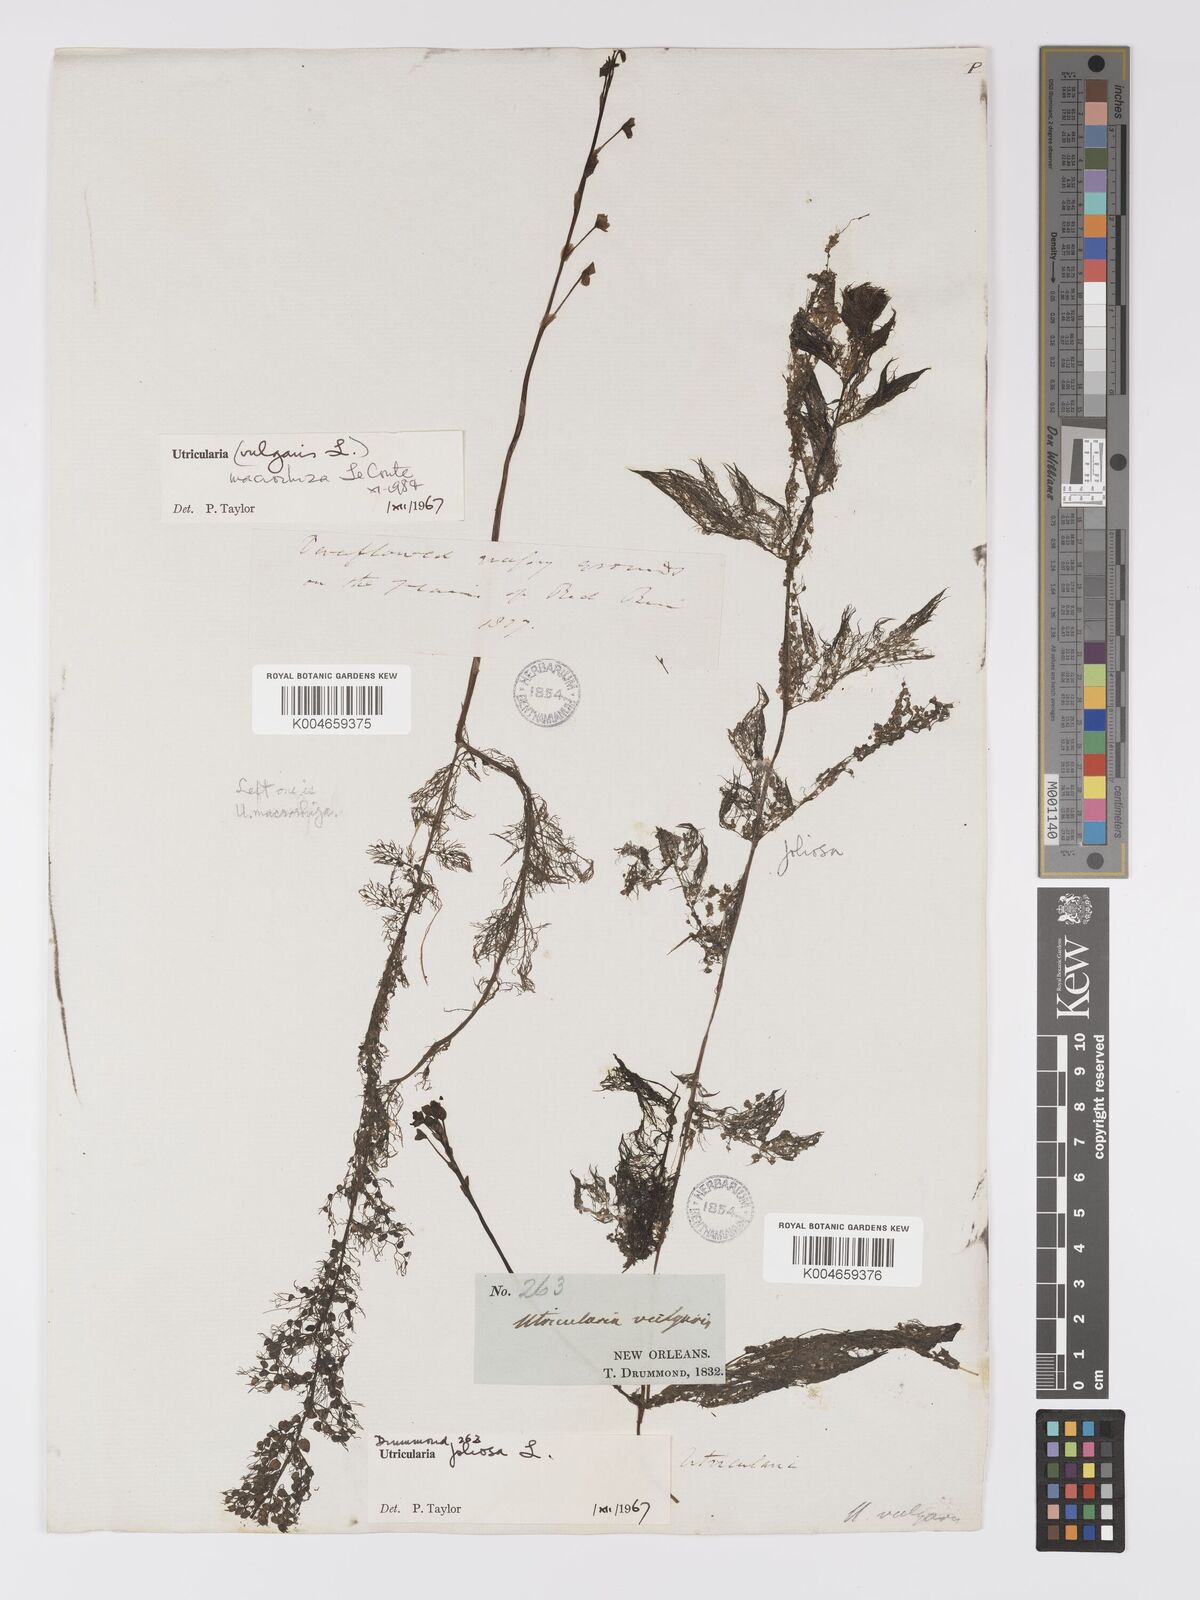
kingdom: Plantae
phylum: Tracheophyta
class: Magnoliopsida
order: Lamiales
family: Lentibulariaceae
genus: Utricularia
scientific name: Utricularia macrorhiza
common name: Common bladderwort
